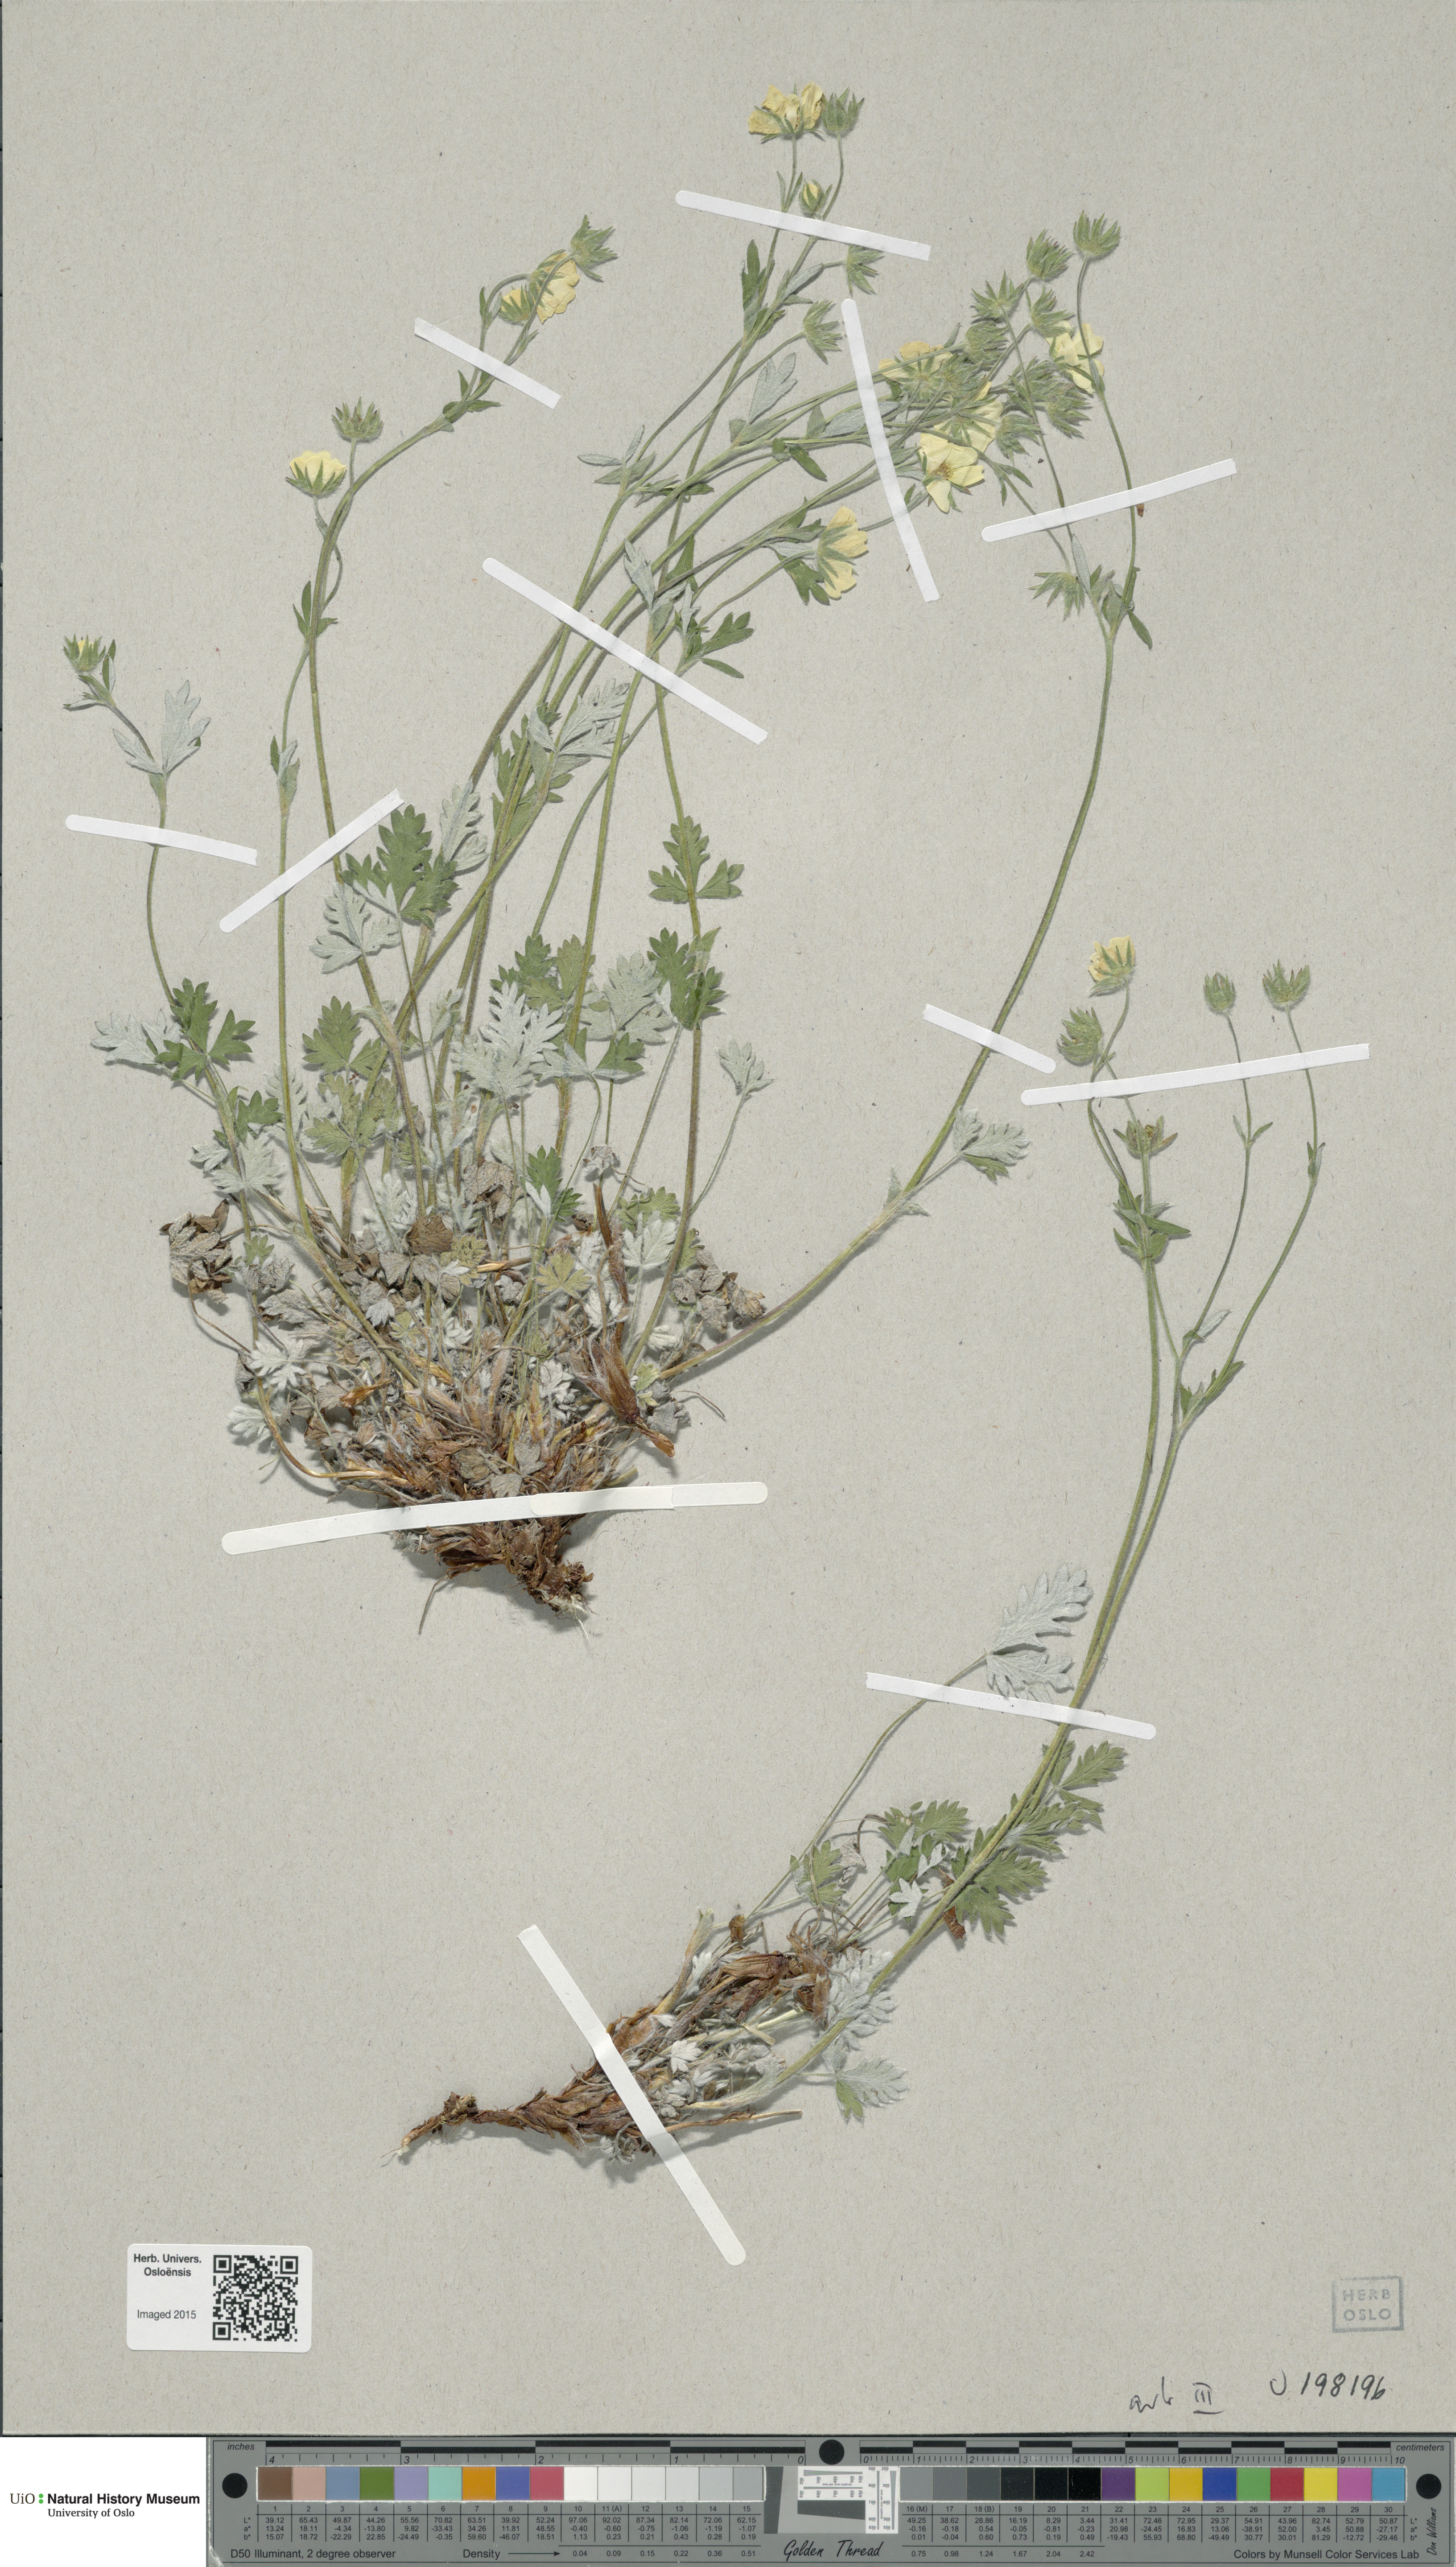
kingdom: Plantae
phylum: Tracheophyta
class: Magnoliopsida
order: Rosales
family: Rosaceae
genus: Potentilla
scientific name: Potentilla arenosa
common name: Bluff cinquefoil
